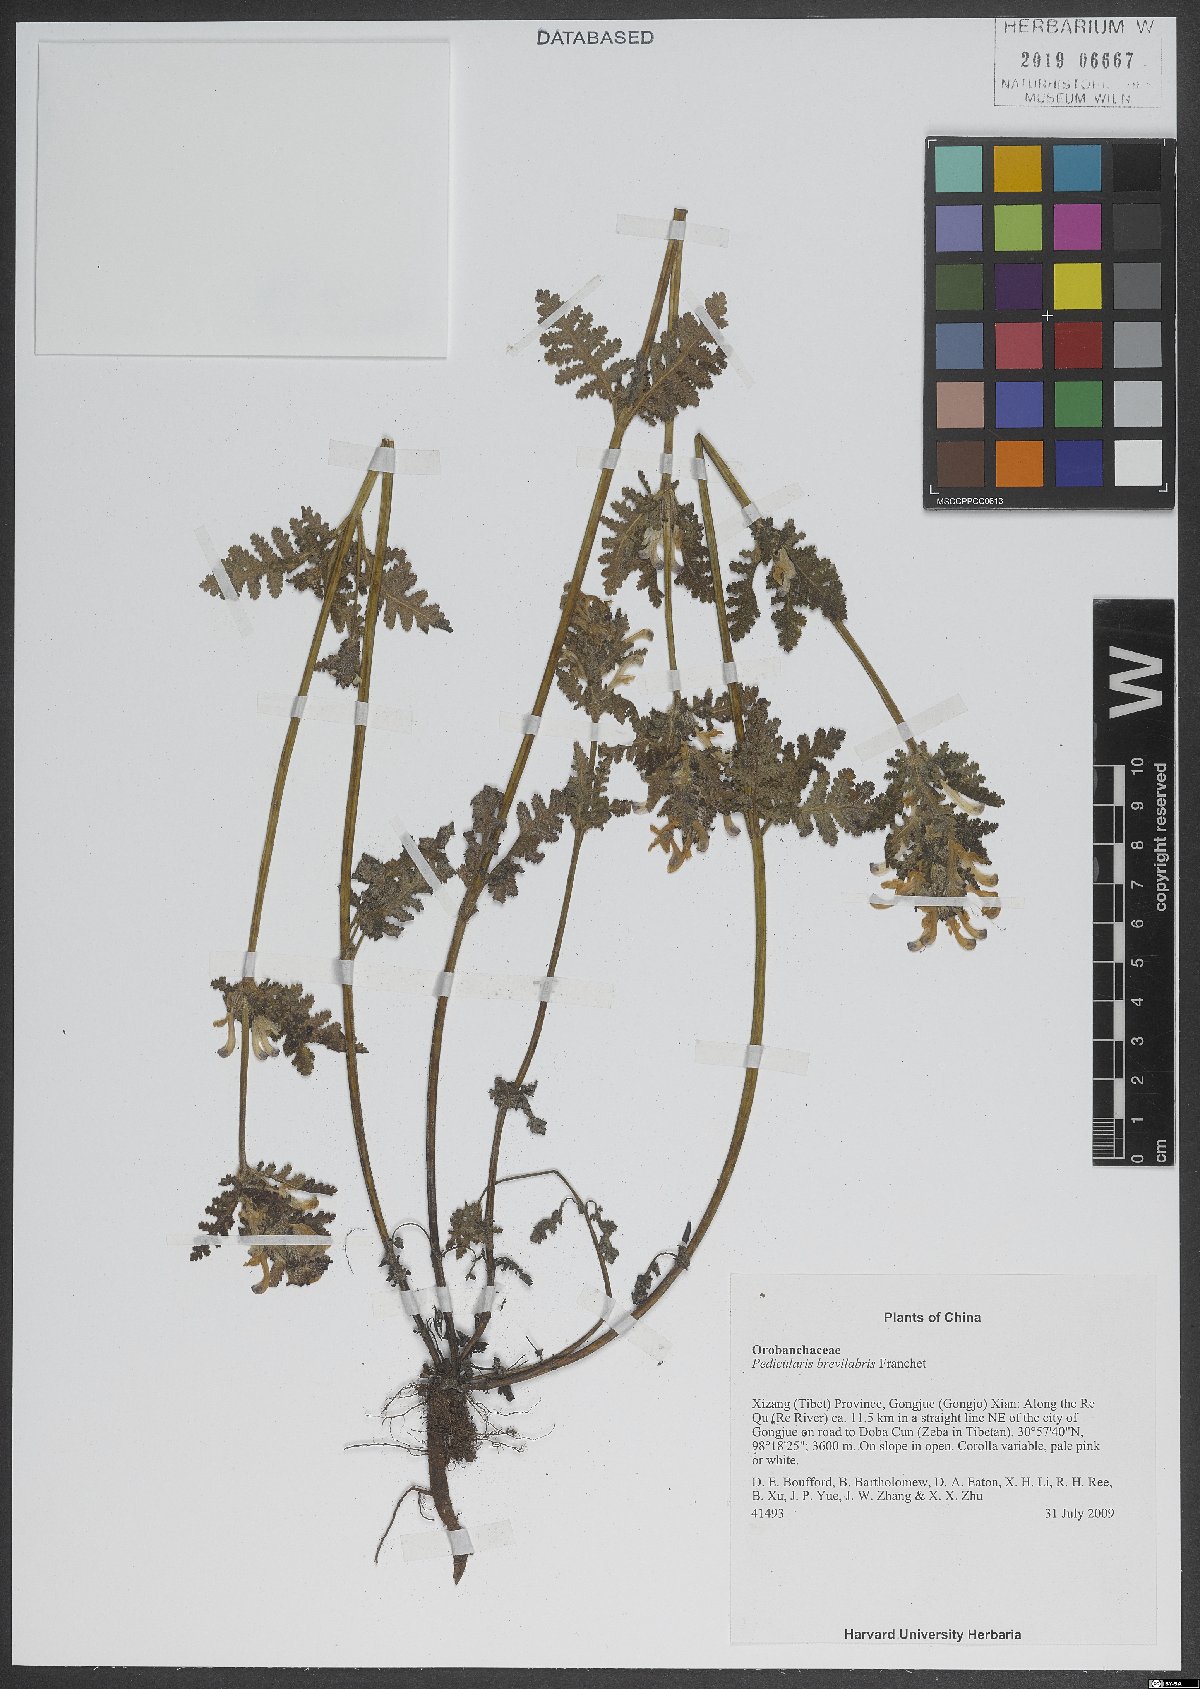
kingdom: Plantae
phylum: Tracheophyta
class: Magnoliopsida
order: Lamiales
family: Orobanchaceae
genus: Pedicularis
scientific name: Pedicularis brevilabris
